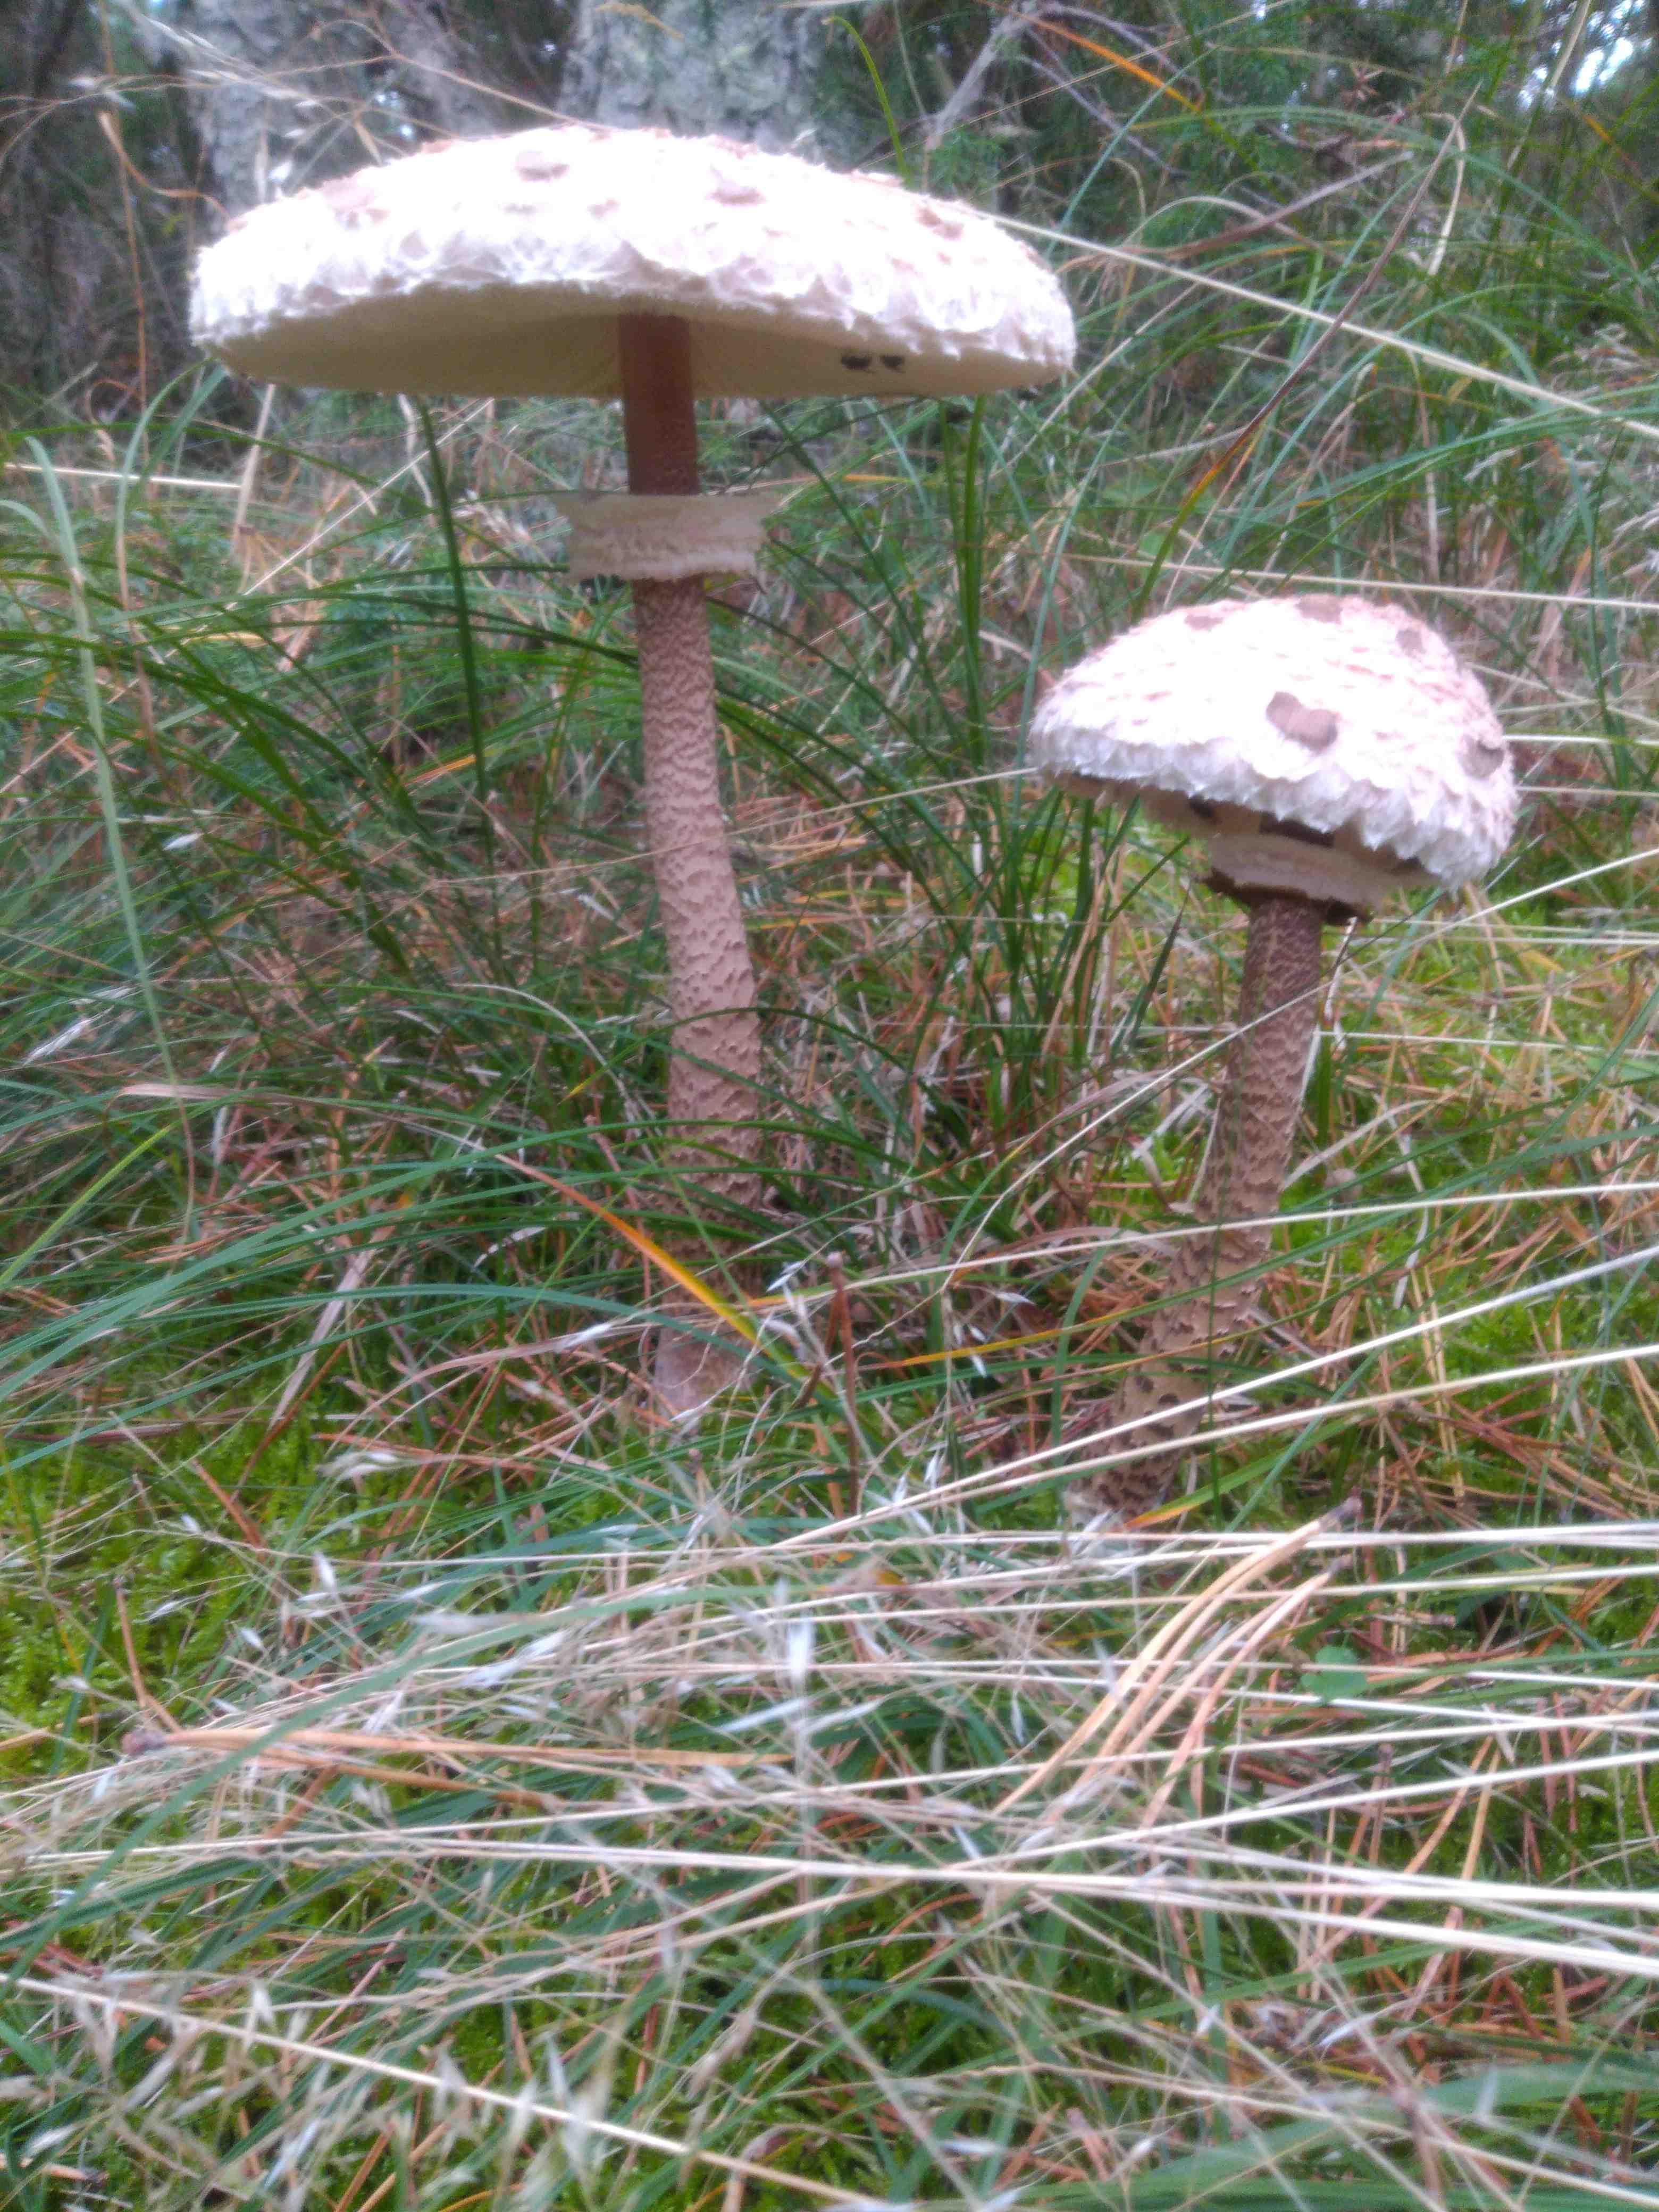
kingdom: Fungi
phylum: Basidiomycota
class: Agaricomycetes
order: Agaricales
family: Agaricaceae
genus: Macrolepiota
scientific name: Macrolepiota procera
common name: stor kæmpeparasolhat
